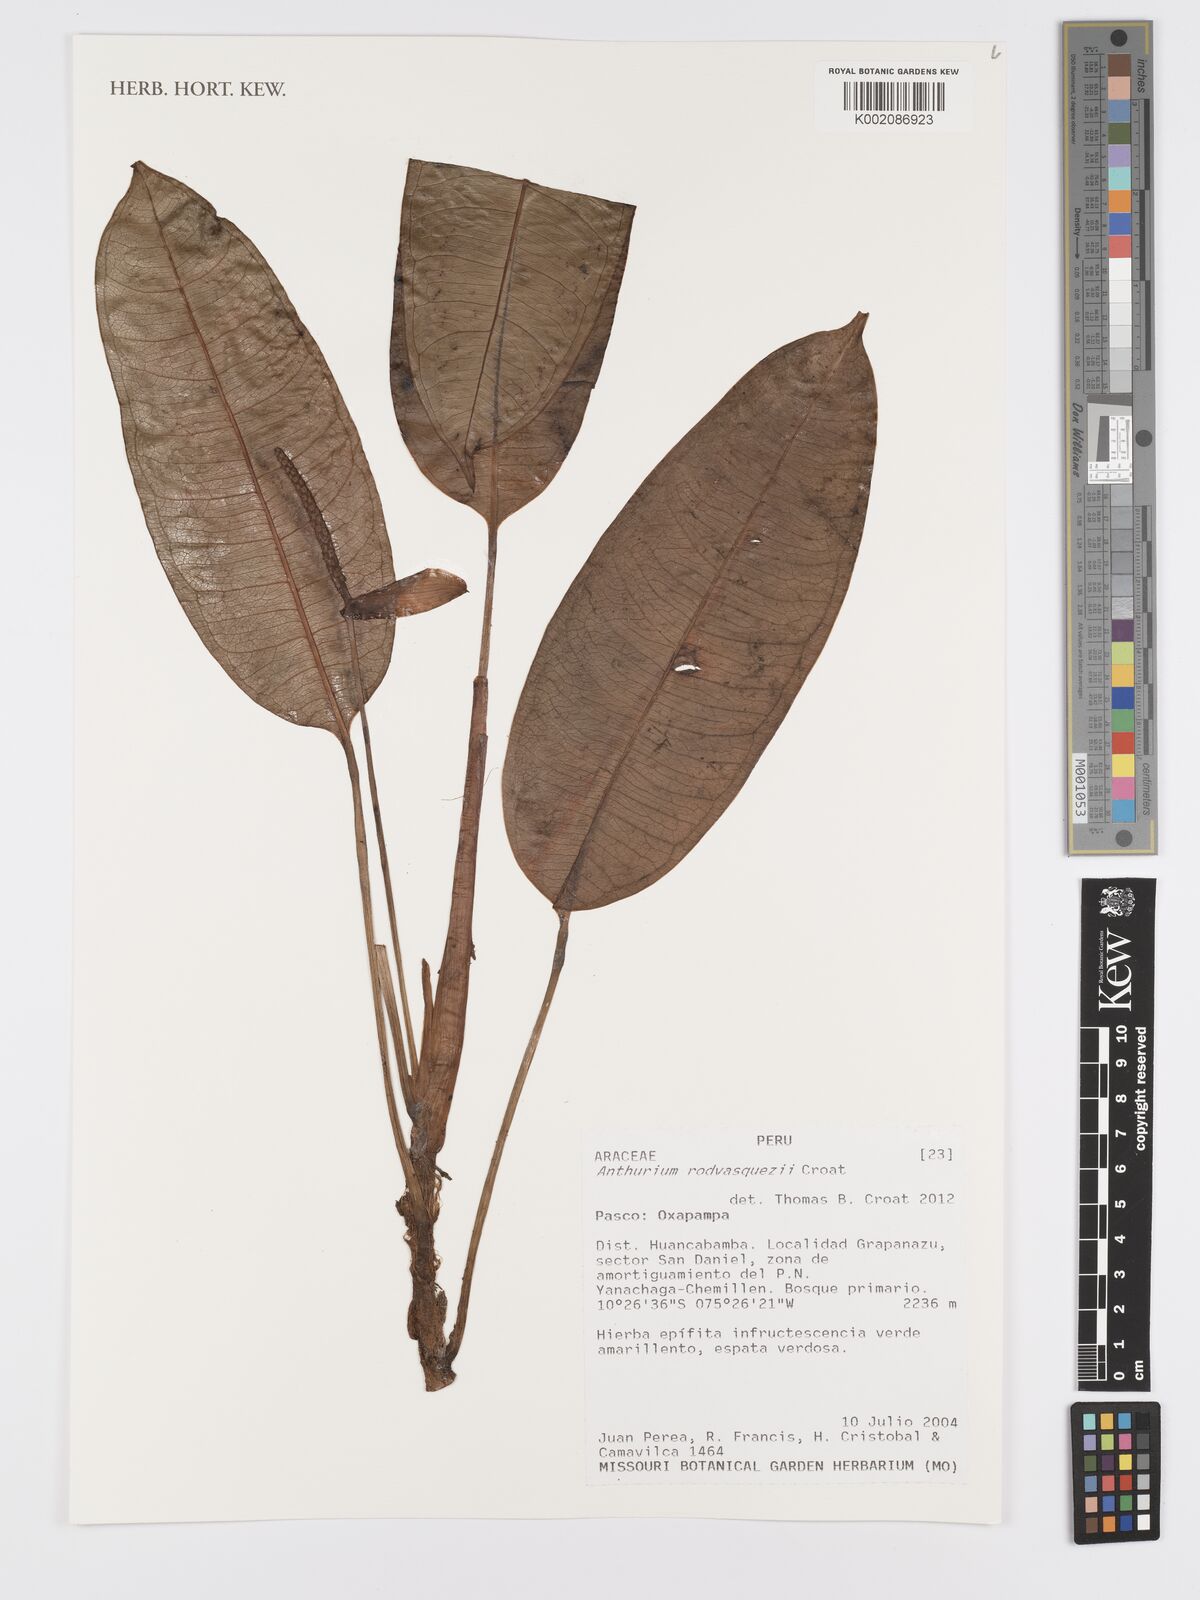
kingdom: Plantae
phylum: Tracheophyta
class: Liliopsida
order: Alismatales
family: Araceae
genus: Anthurium
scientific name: Anthurium rodvasquezii
